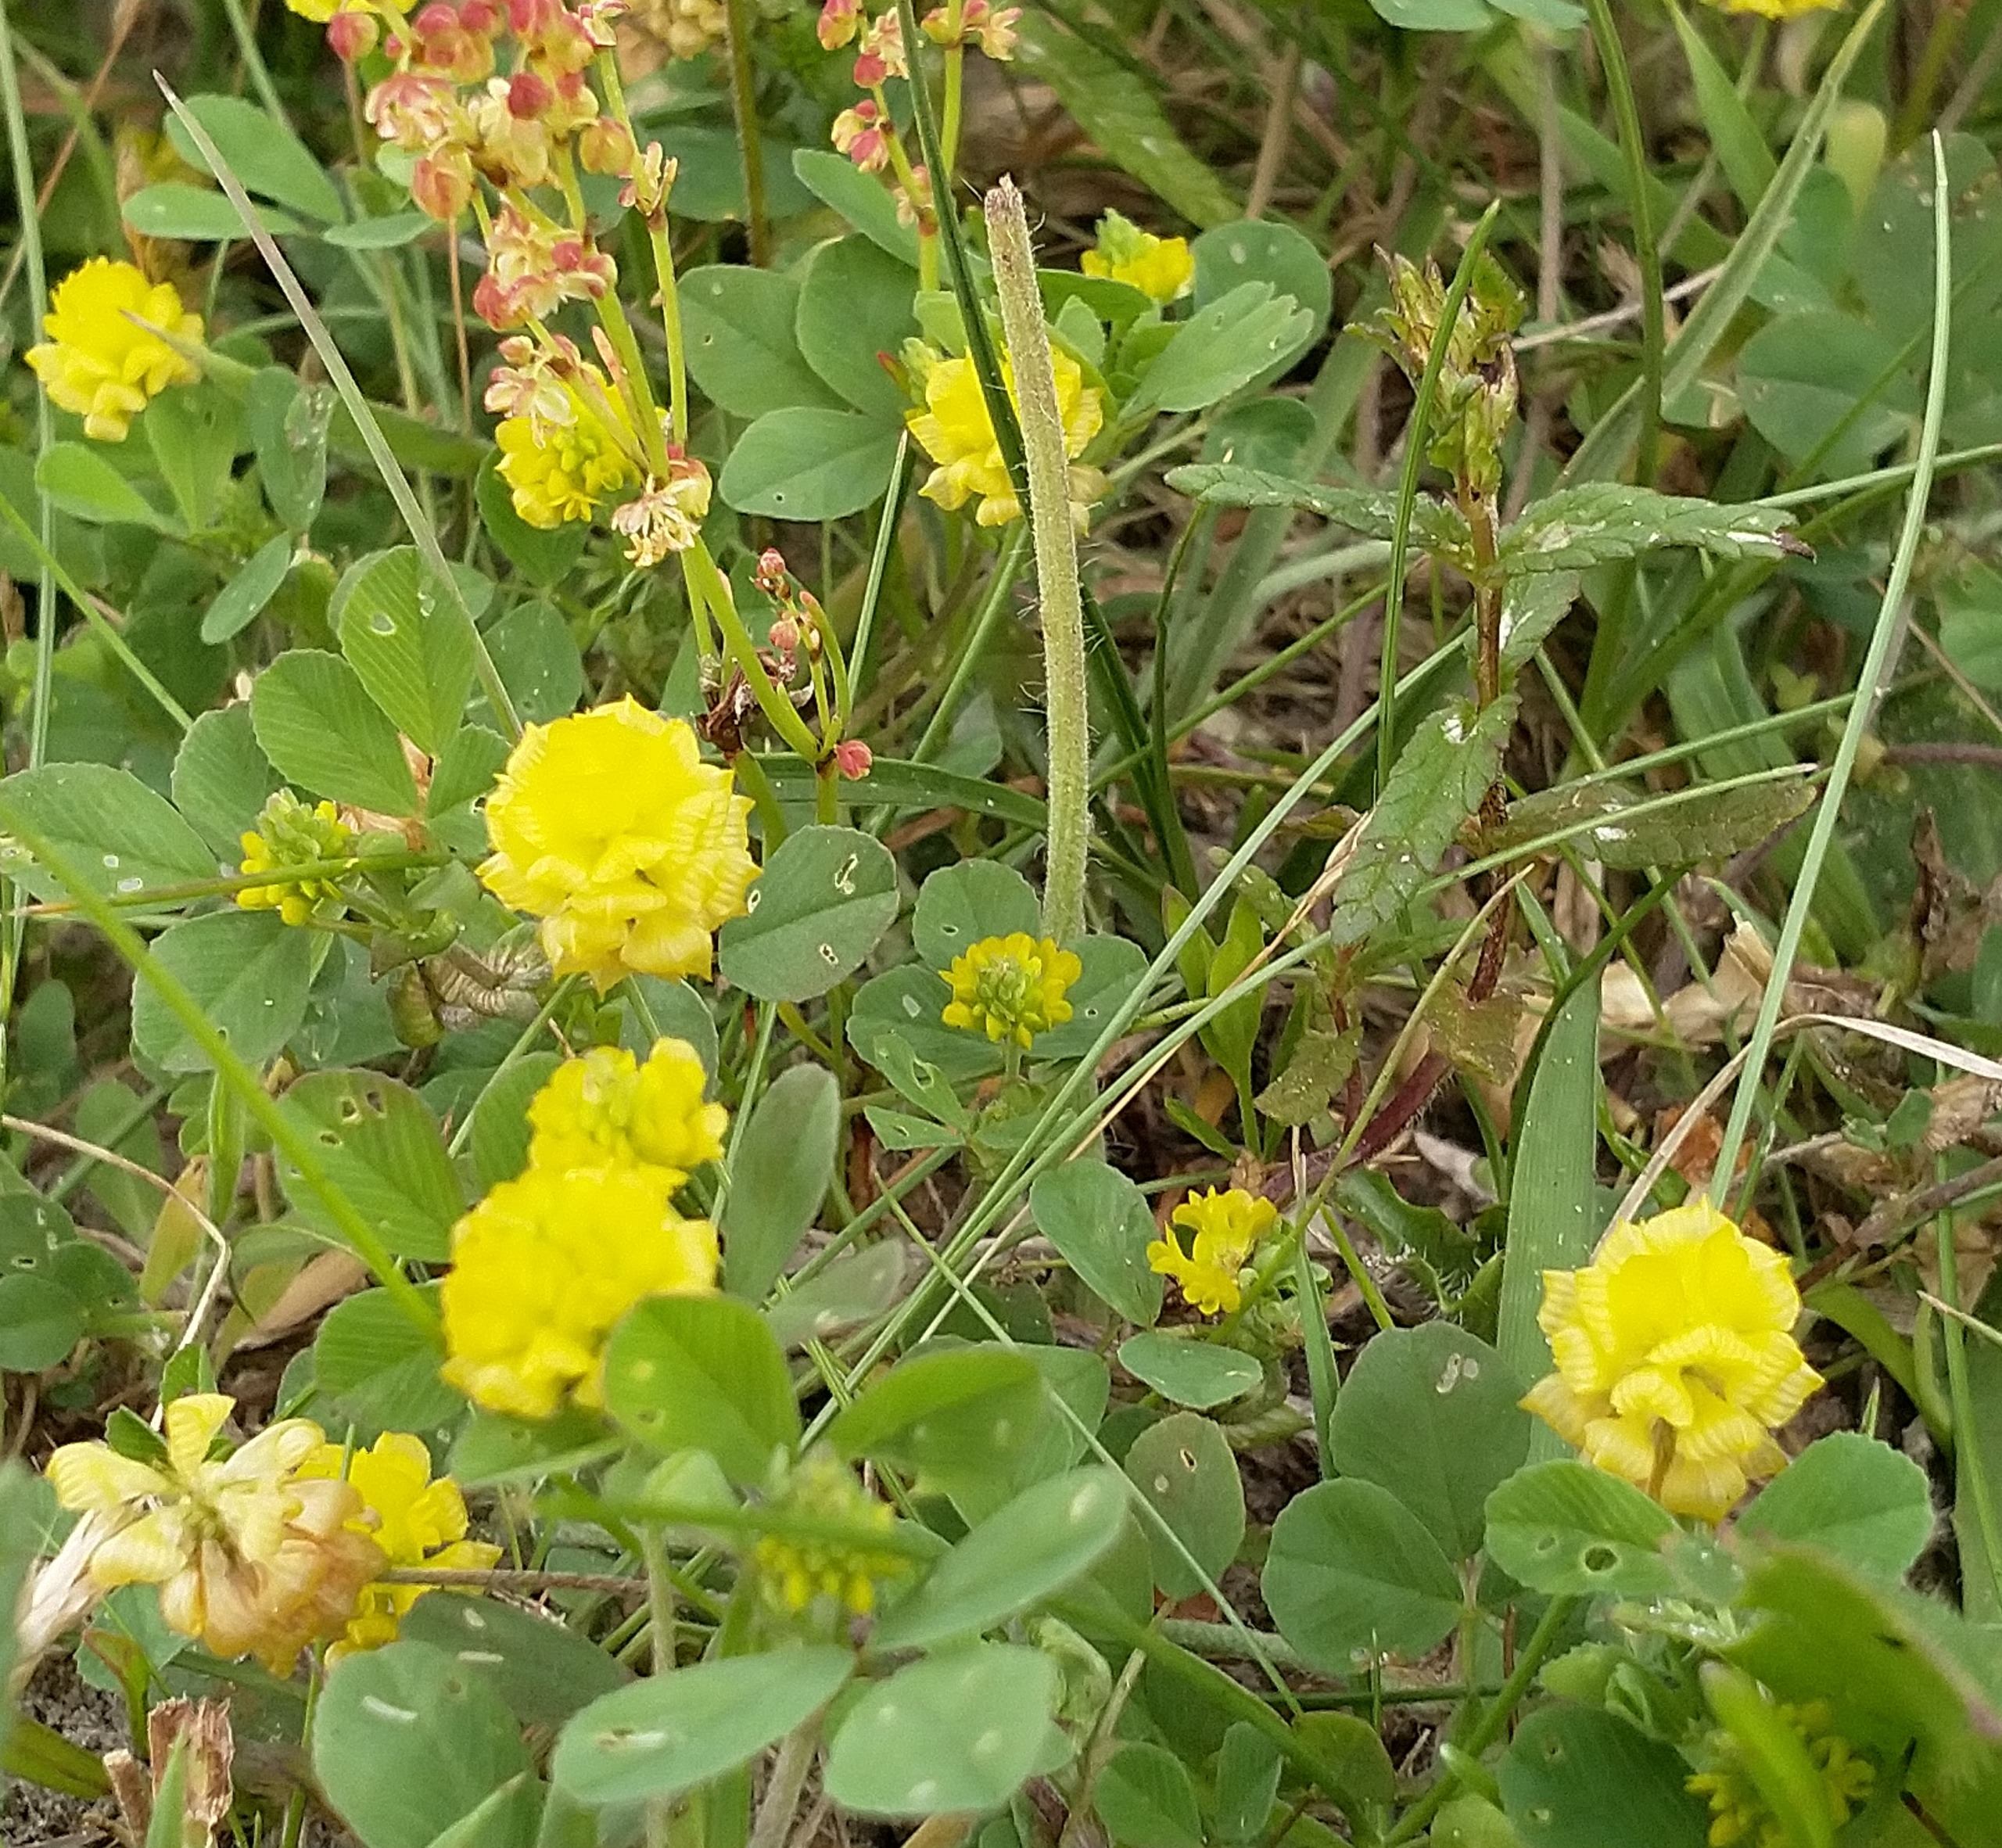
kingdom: Plantae
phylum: Tracheophyta
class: Magnoliopsida
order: Fabales
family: Fabaceae
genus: Trifolium
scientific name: Trifolium campestre
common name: Gul kløver
